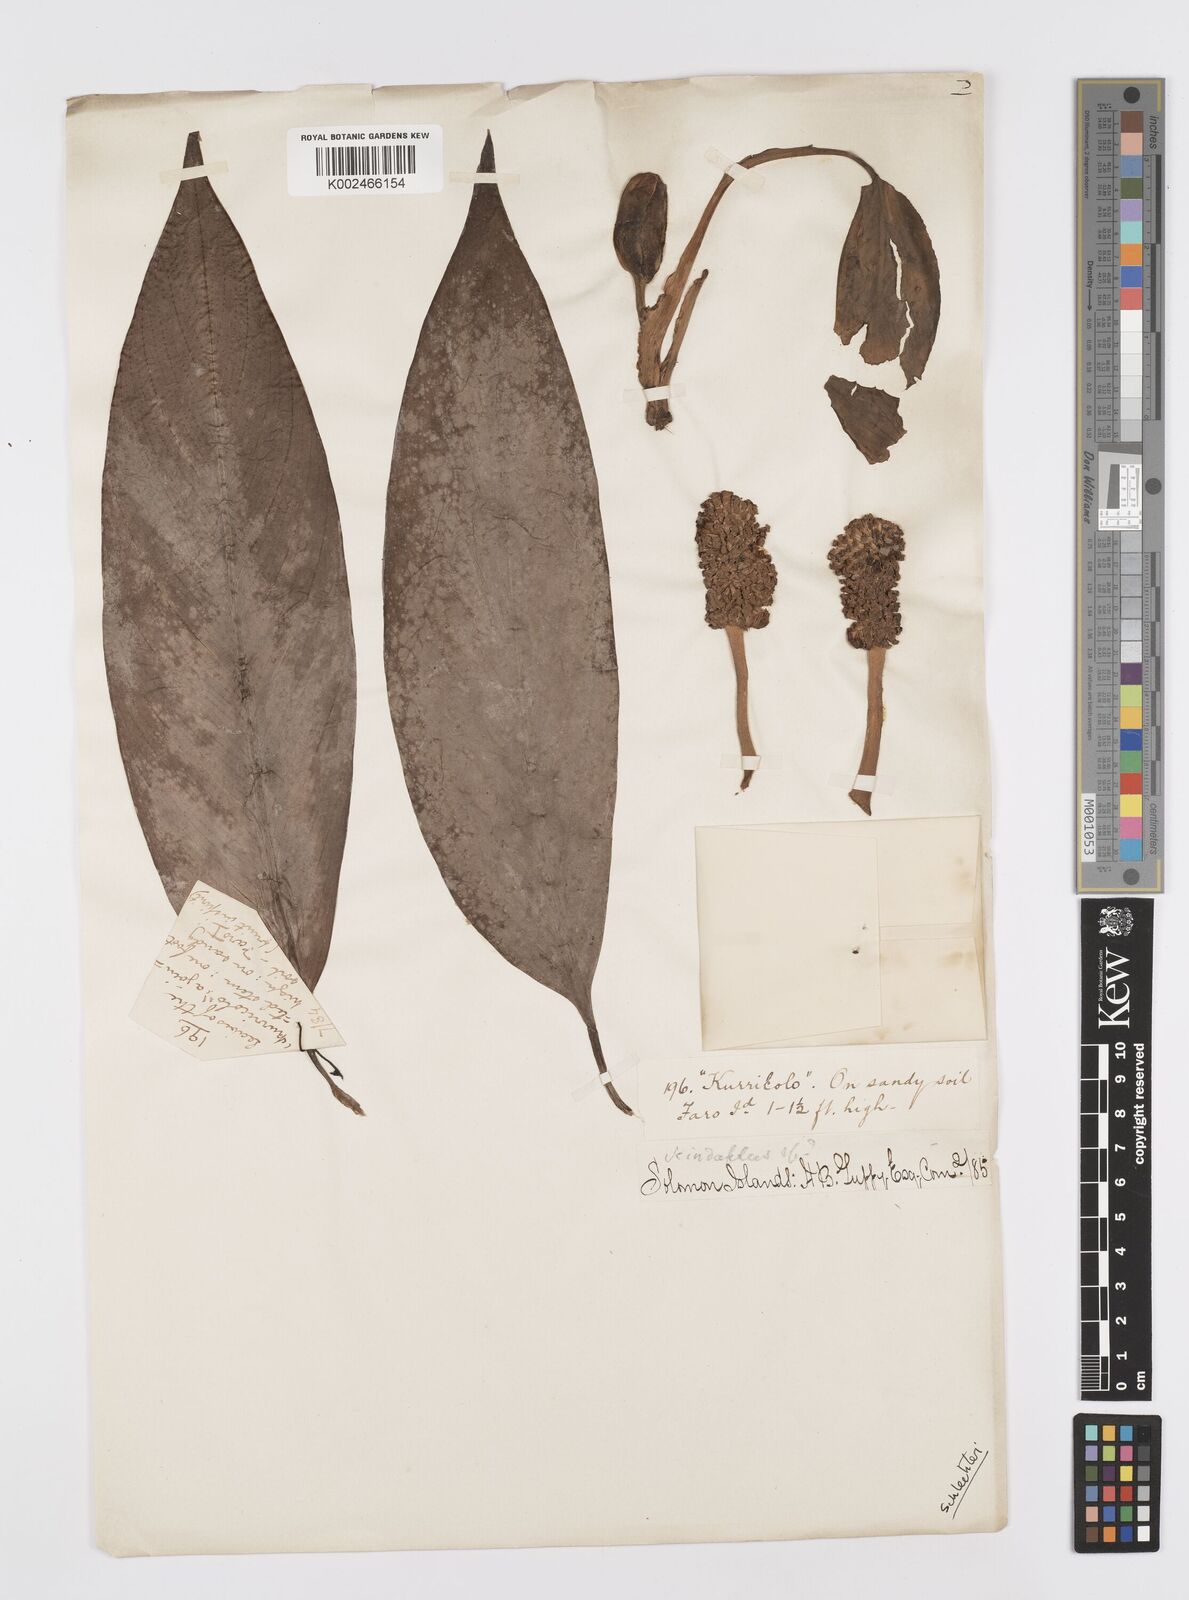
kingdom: Plantae
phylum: Tracheophyta
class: Liliopsida
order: Alismatales
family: Araceae
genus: Rhaphidophora
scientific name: Rhaphidophora schlechteri
